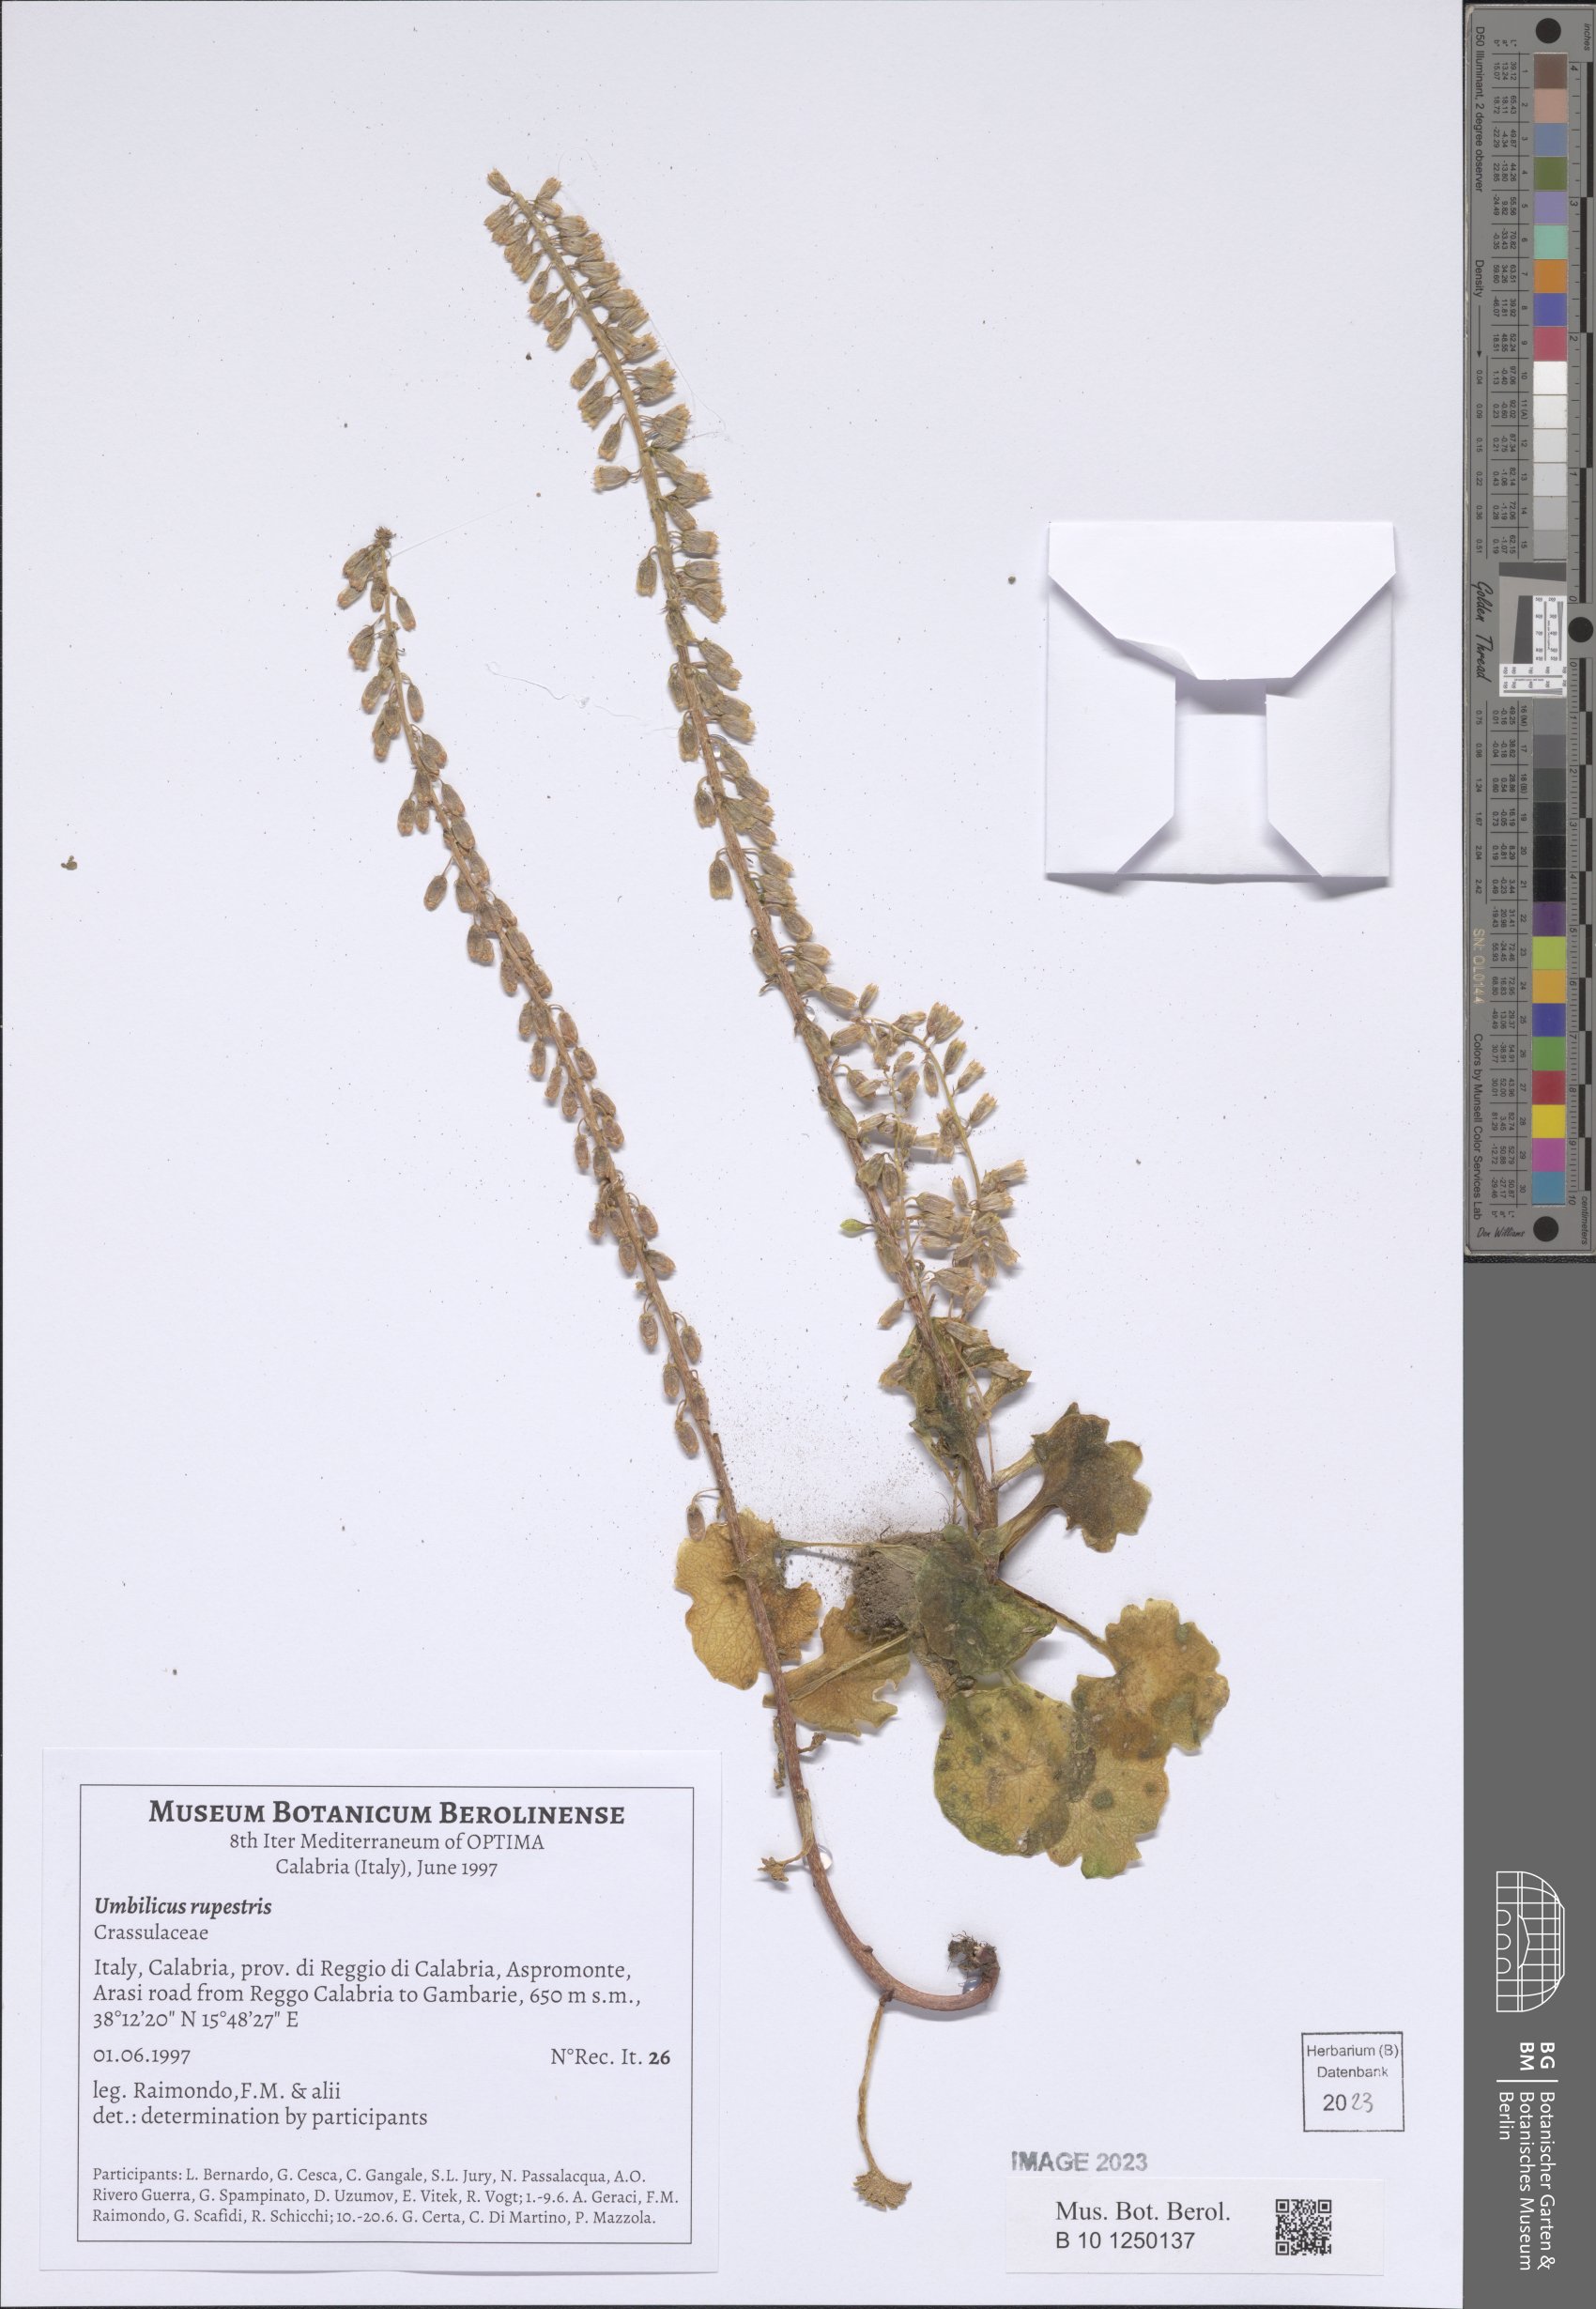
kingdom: Plantae
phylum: Tracheophyta
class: Magnoliopsida
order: Saxifragales
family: Crassulaceae
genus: Umbilicus
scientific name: Umbilicus rupestris
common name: Navelwort
